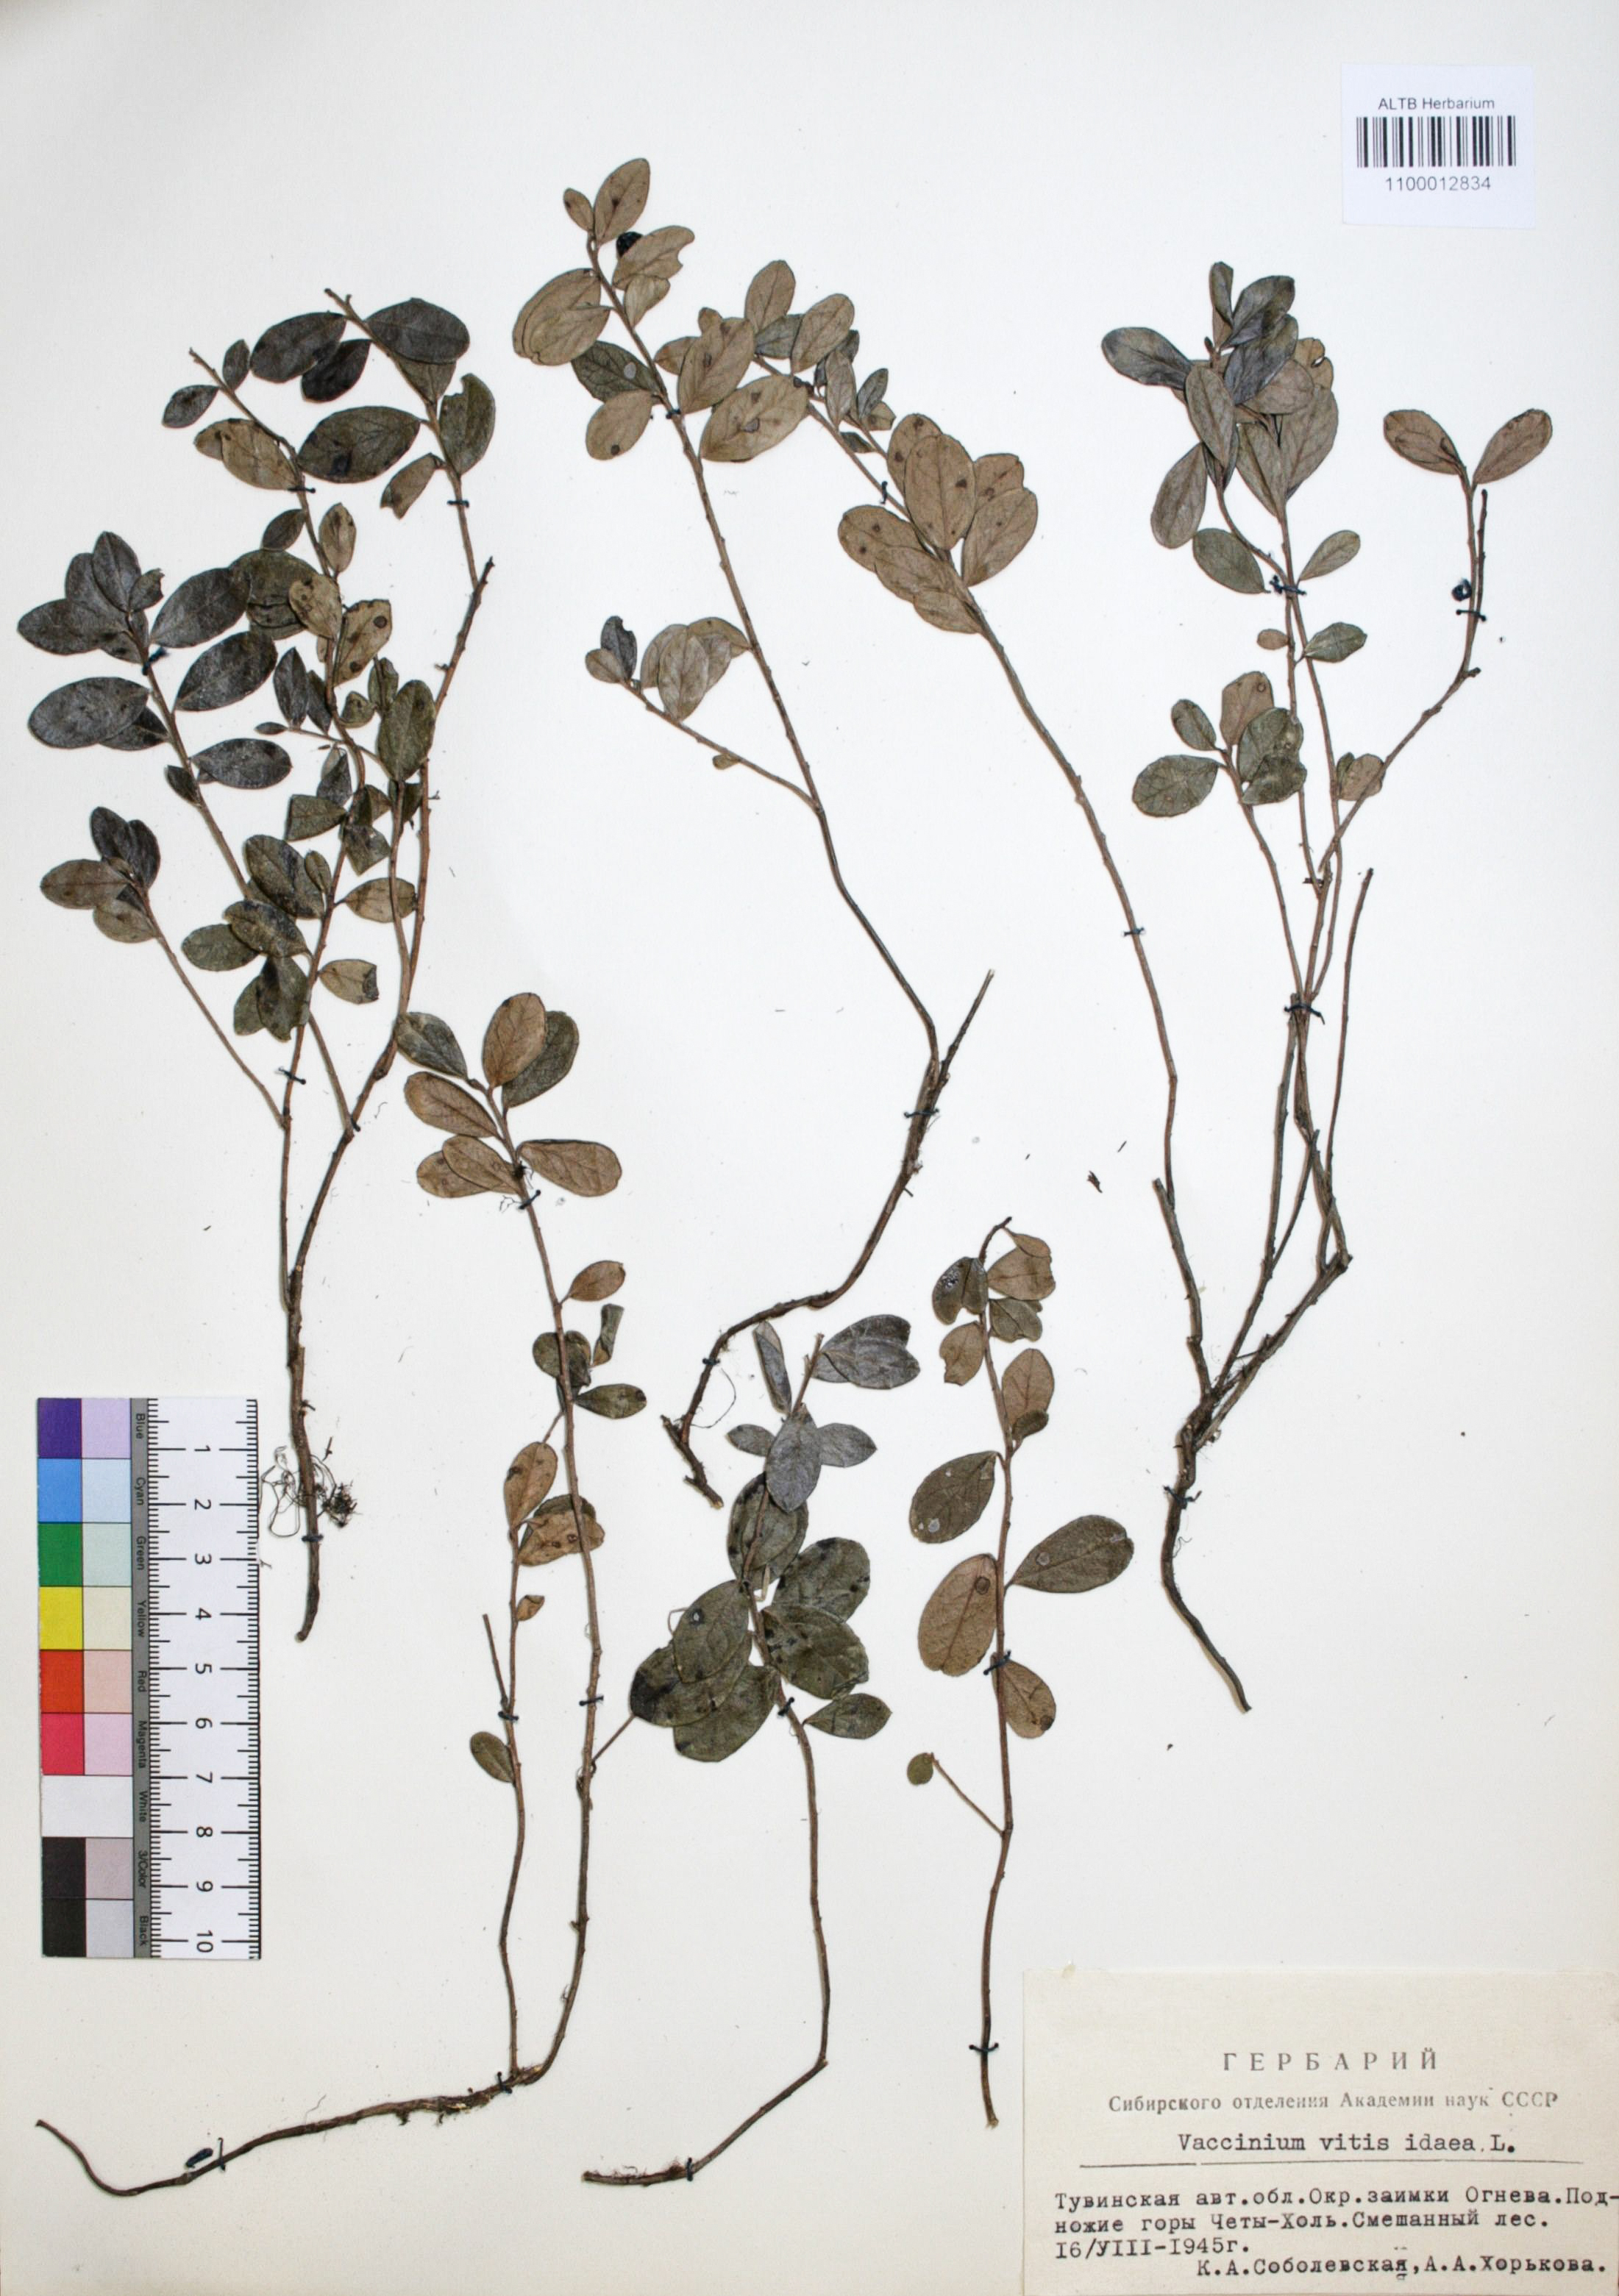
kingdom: Plantae
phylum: Tracheophyta
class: Magnoliopsida
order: Ericales
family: Ericaceae
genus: Vaccinium
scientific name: Vaccinium vitis-idaea
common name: Cowberry
